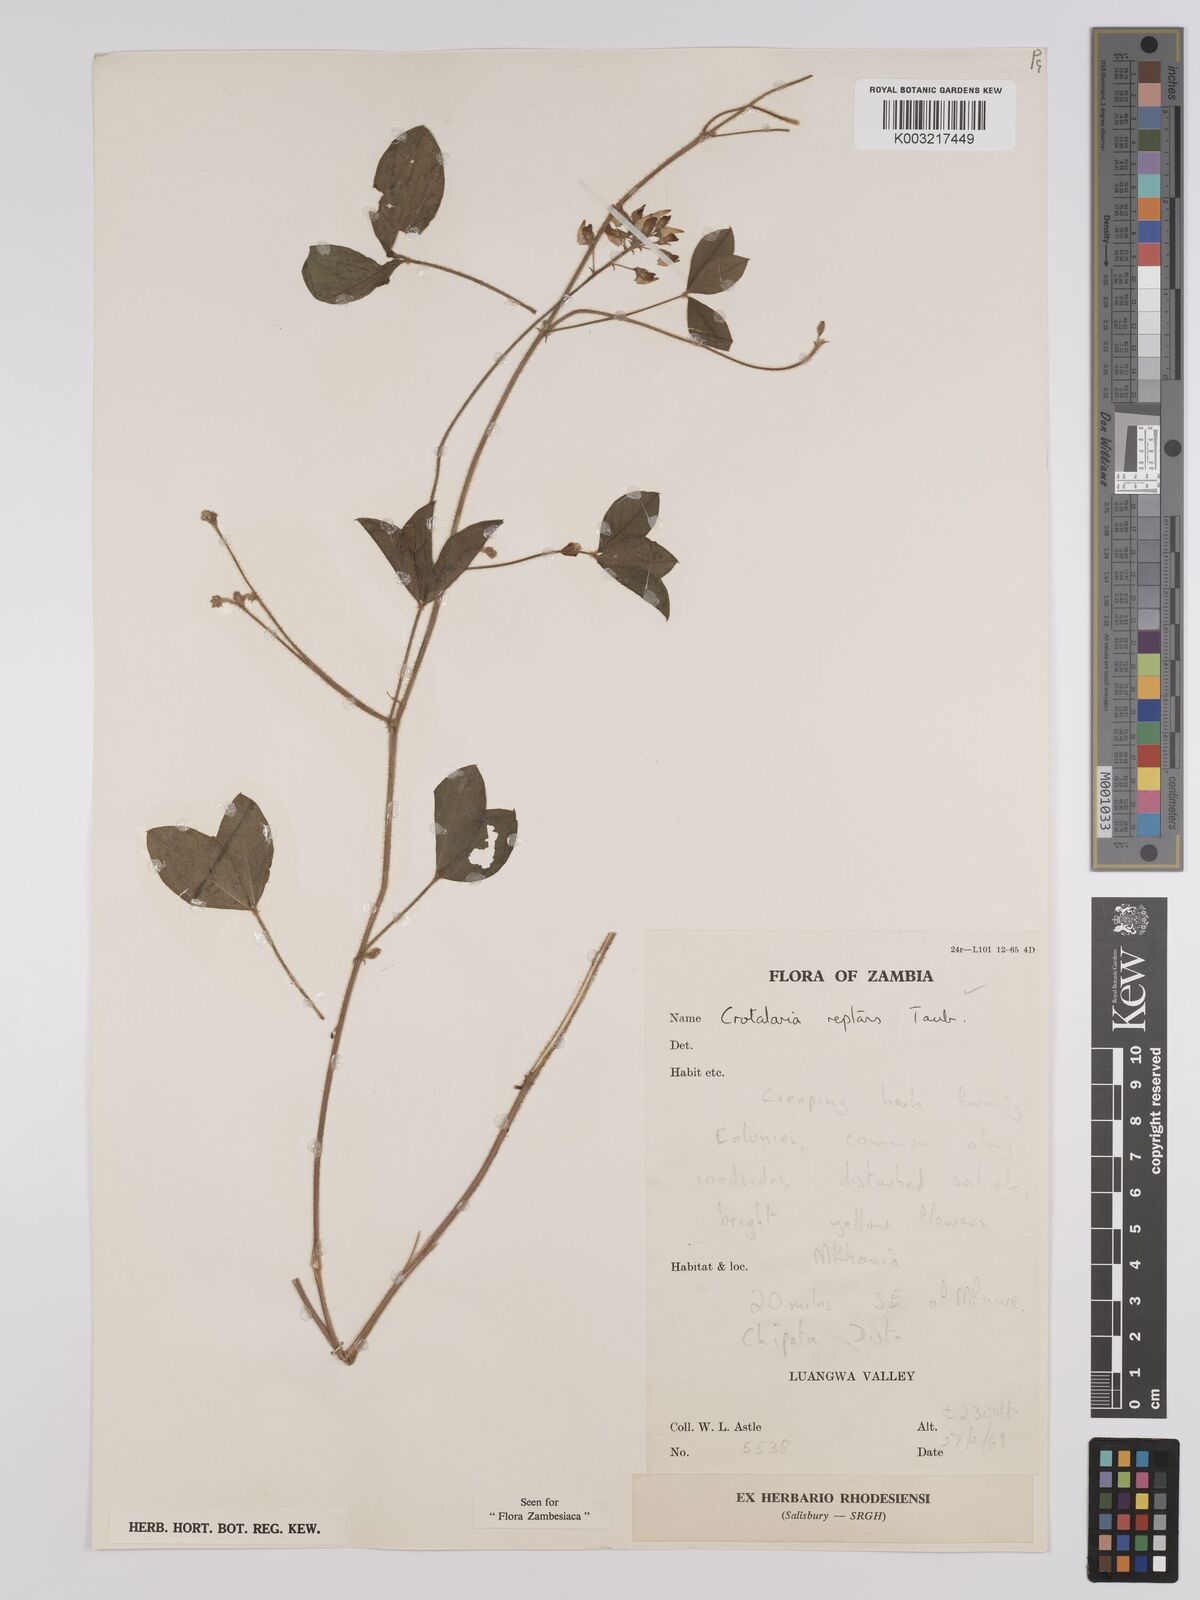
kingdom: Plantae
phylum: Tracheophyta
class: Magnoliopsida
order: Fabales
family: Fabaceae
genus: Crotalaria
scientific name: Crotalaria reptans
